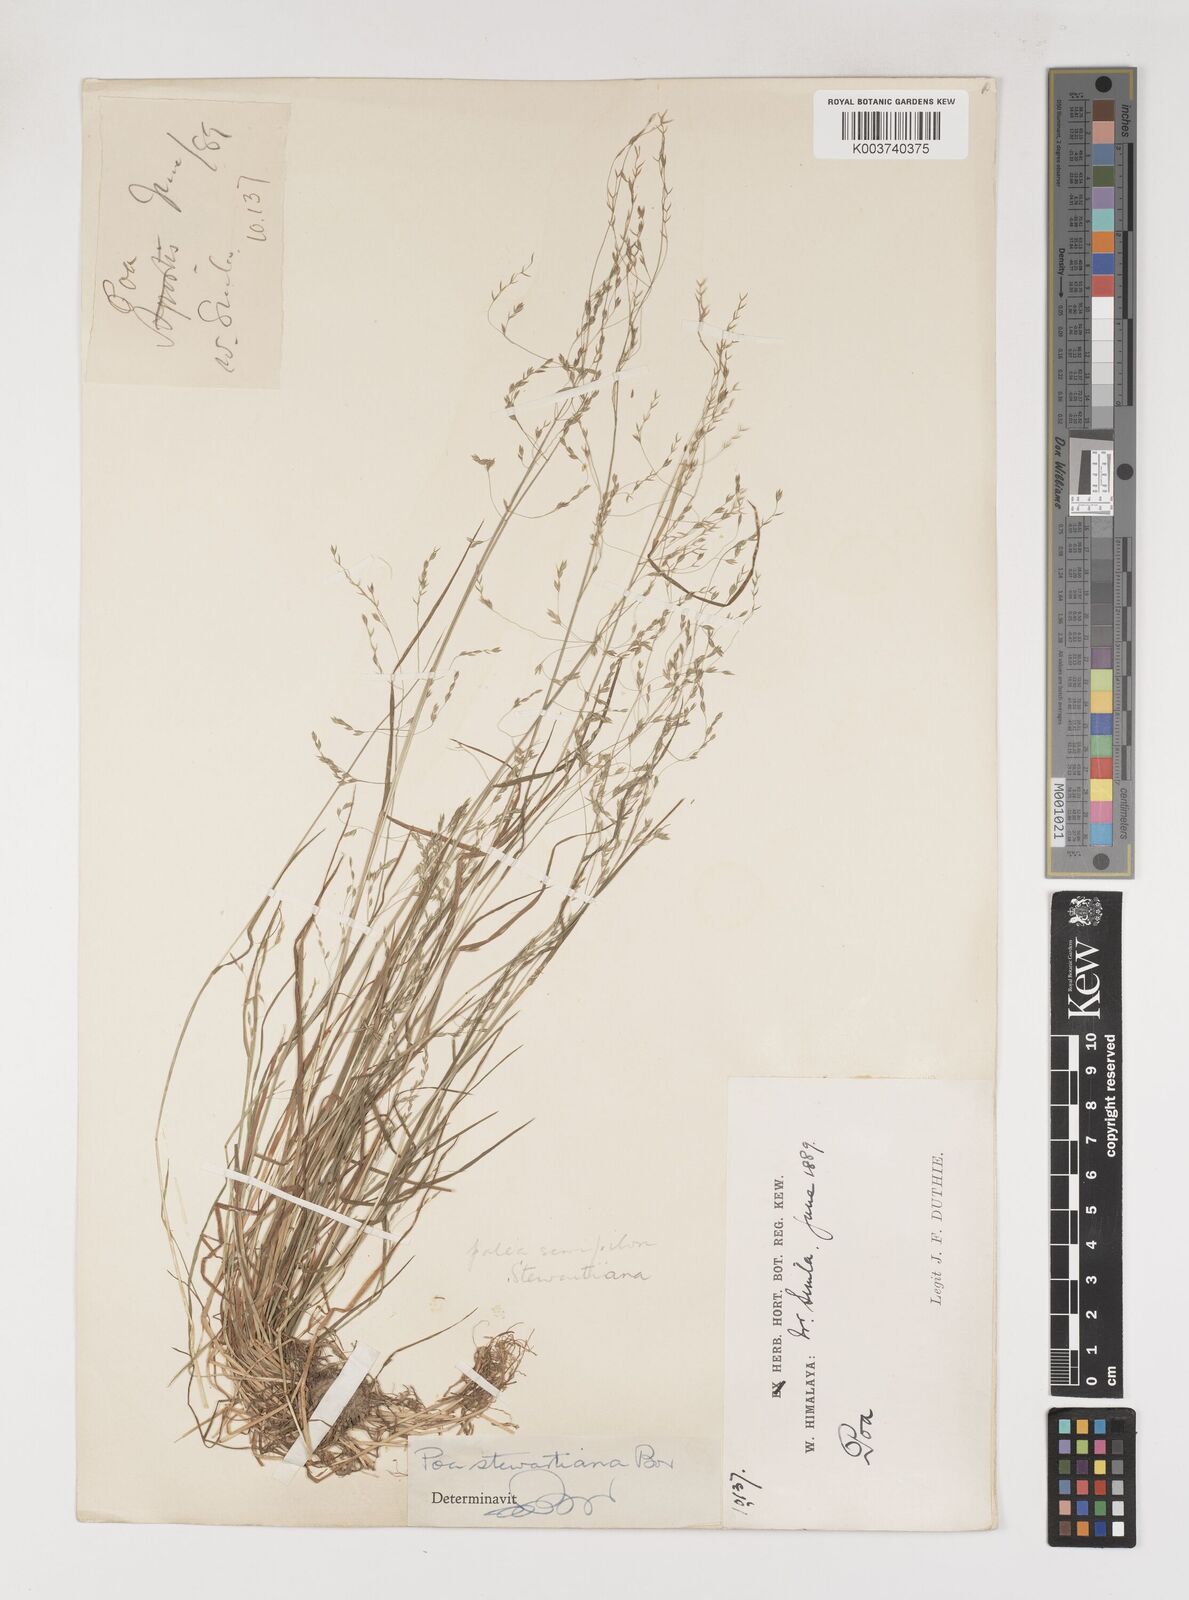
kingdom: Plantae
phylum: Tracheophyta
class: Liliopsida
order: Poales
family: Poaceae
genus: Poa
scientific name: Poa stewartiana
